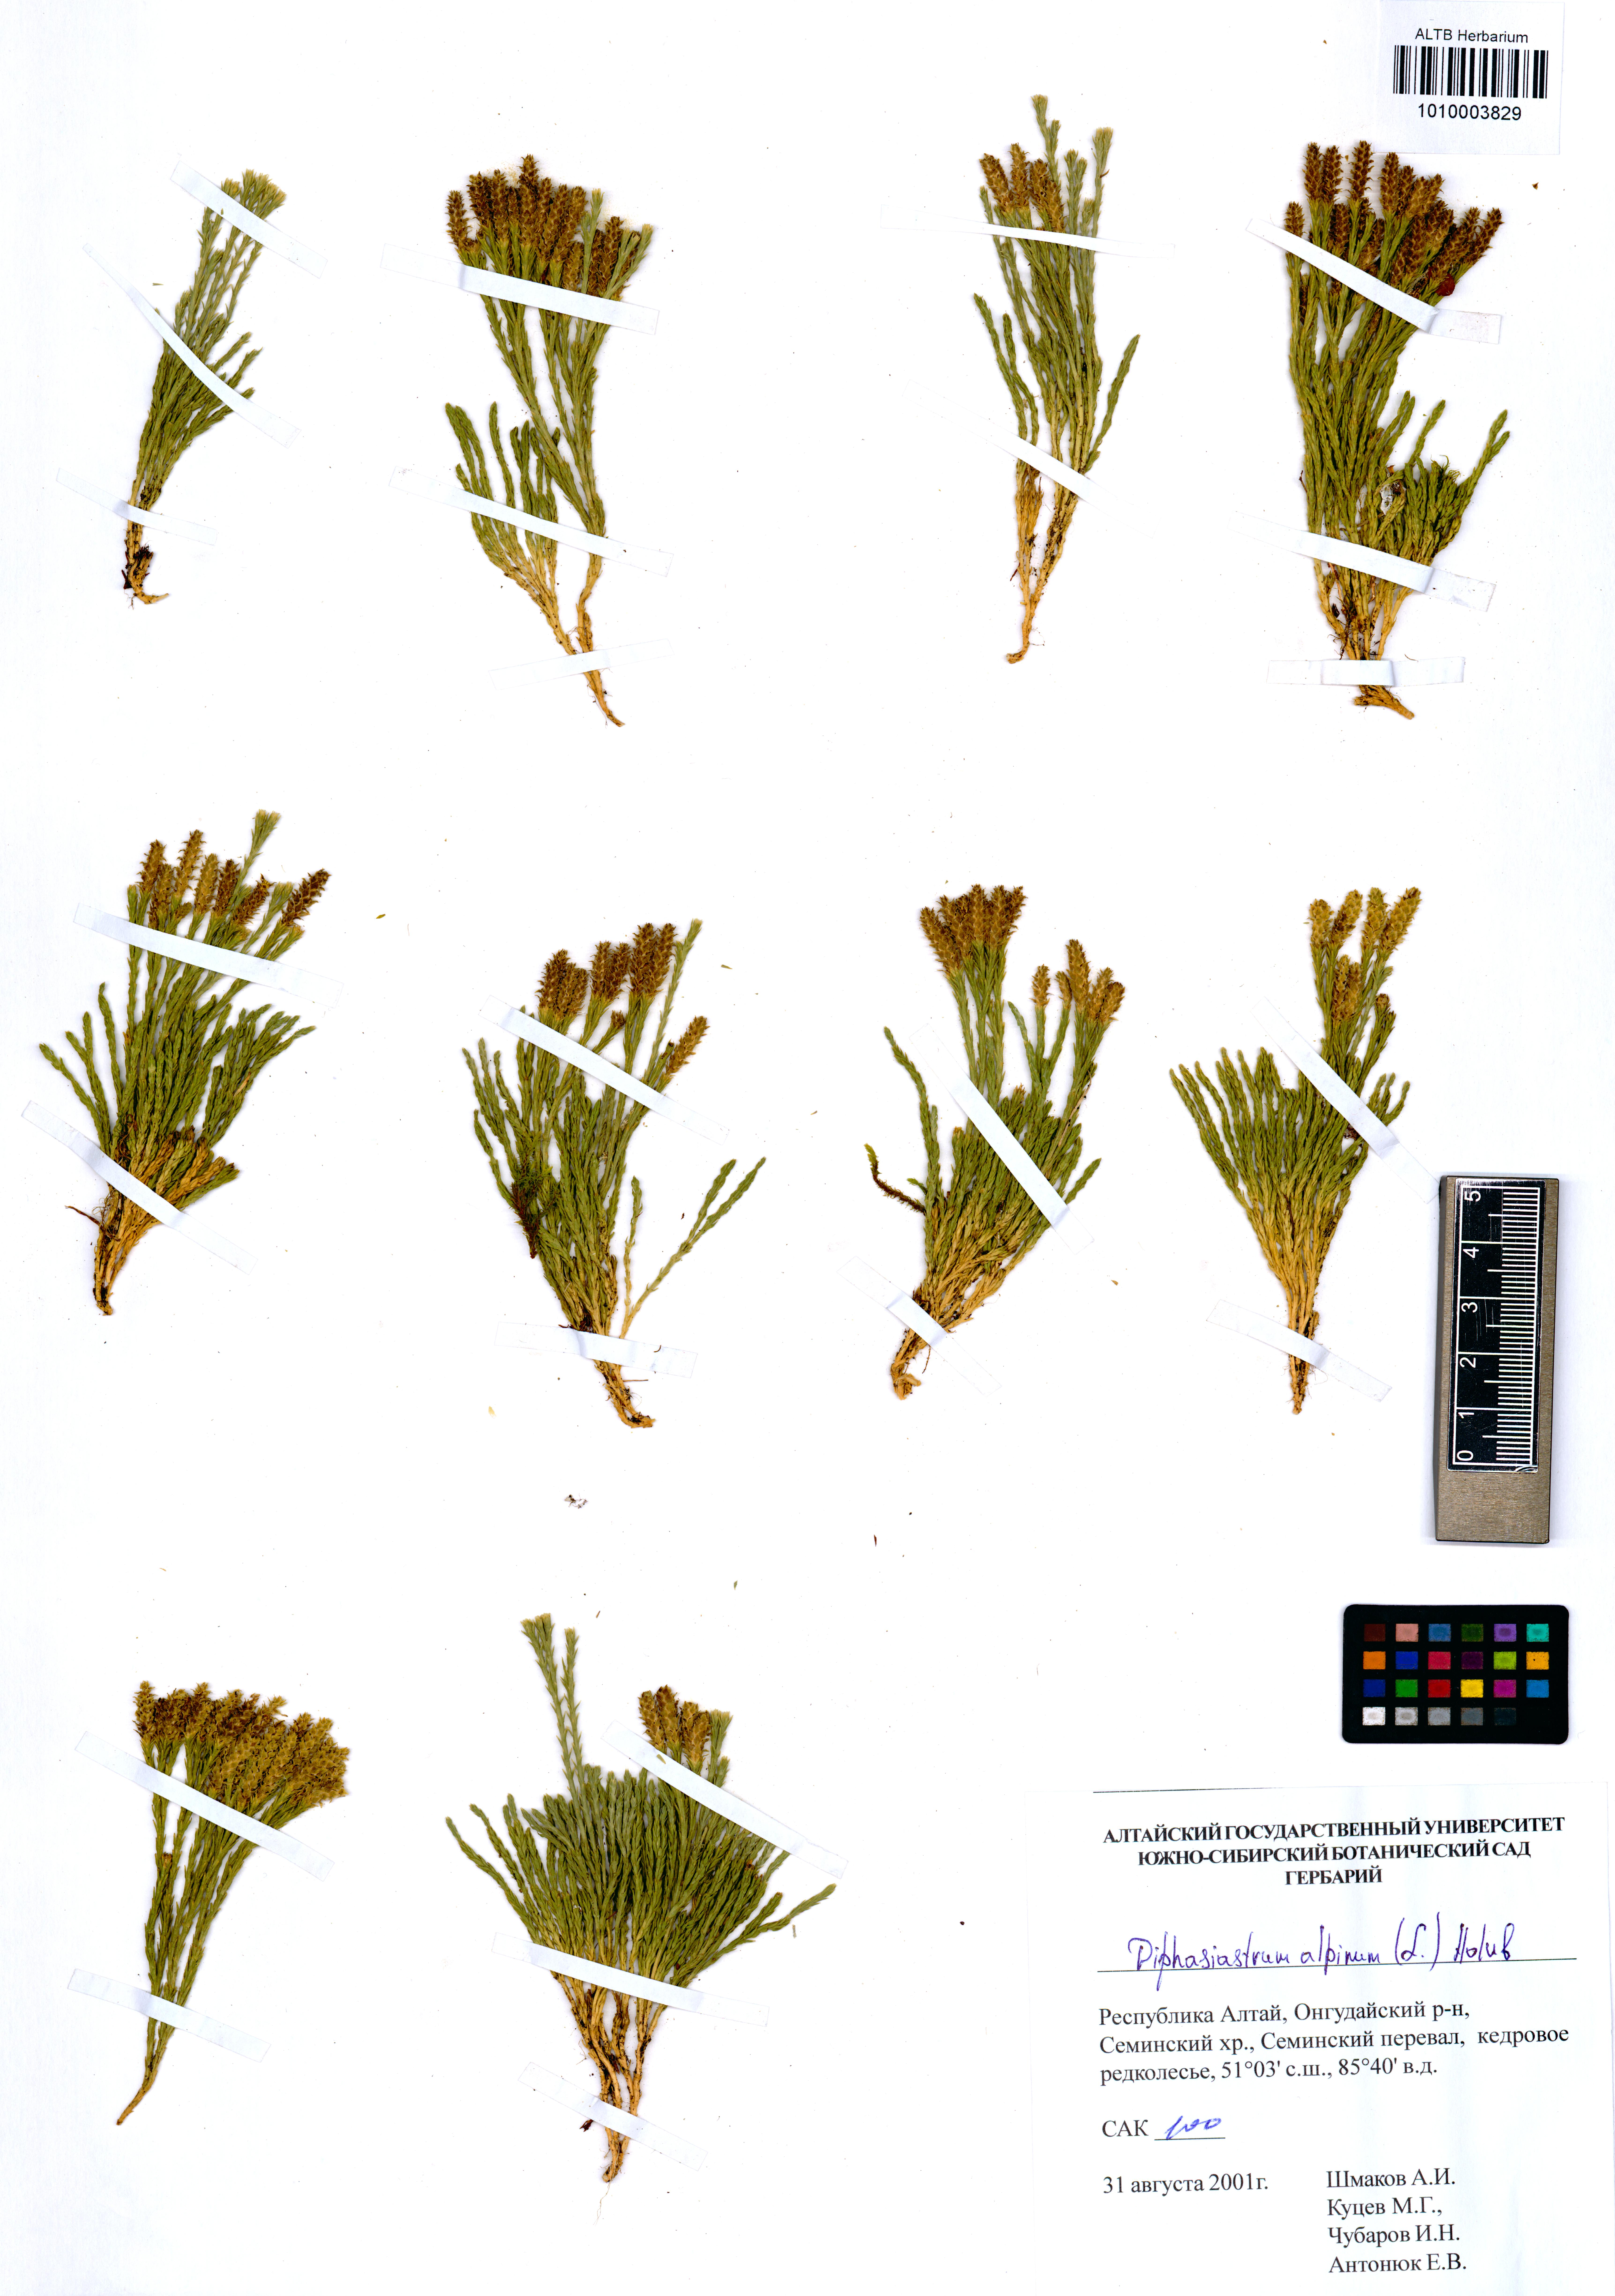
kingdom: Plantae
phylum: Tracheophyta
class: Lycopodiopsida
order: Lycopodiales
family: Lycopodiaceae
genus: Diphasiastrum
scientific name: Diphasiastrum alpinum
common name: Alpine clubmoss
